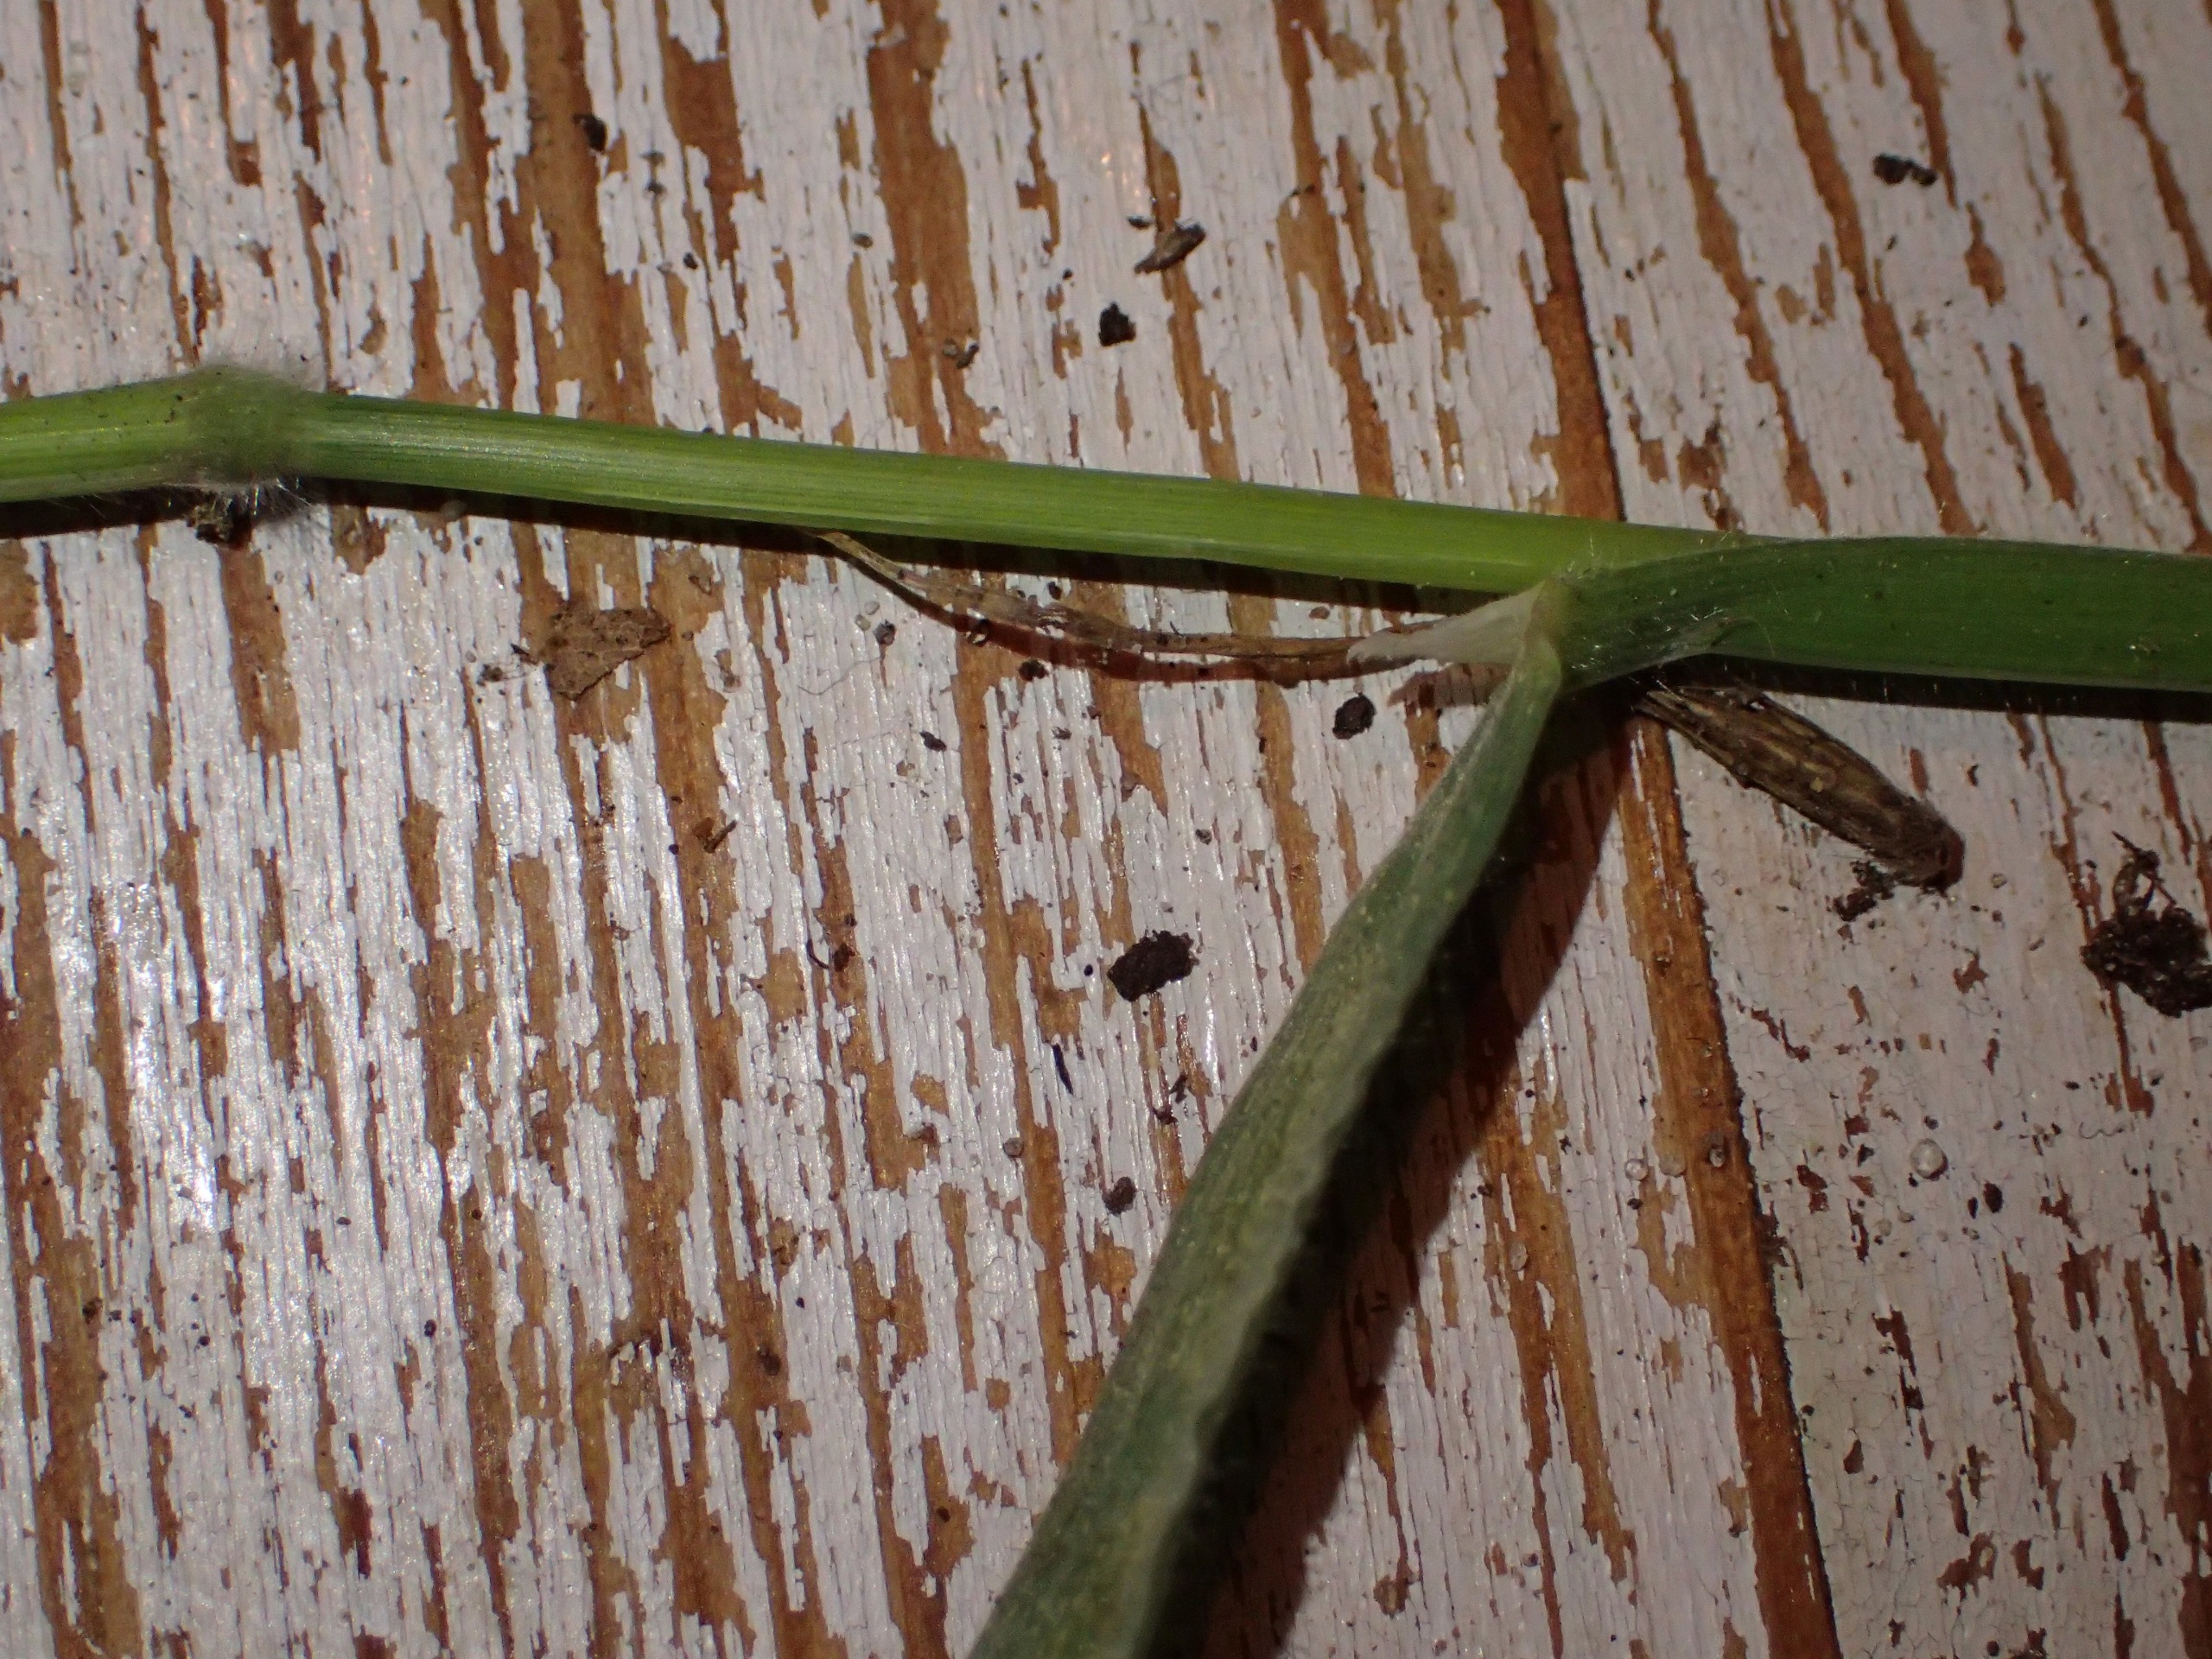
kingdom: Plantae
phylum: Tracheophyta
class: Liliopsida
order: Poales
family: Poaceae
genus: Holcus
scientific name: Holcus mollis
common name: Krybende hestegræs
